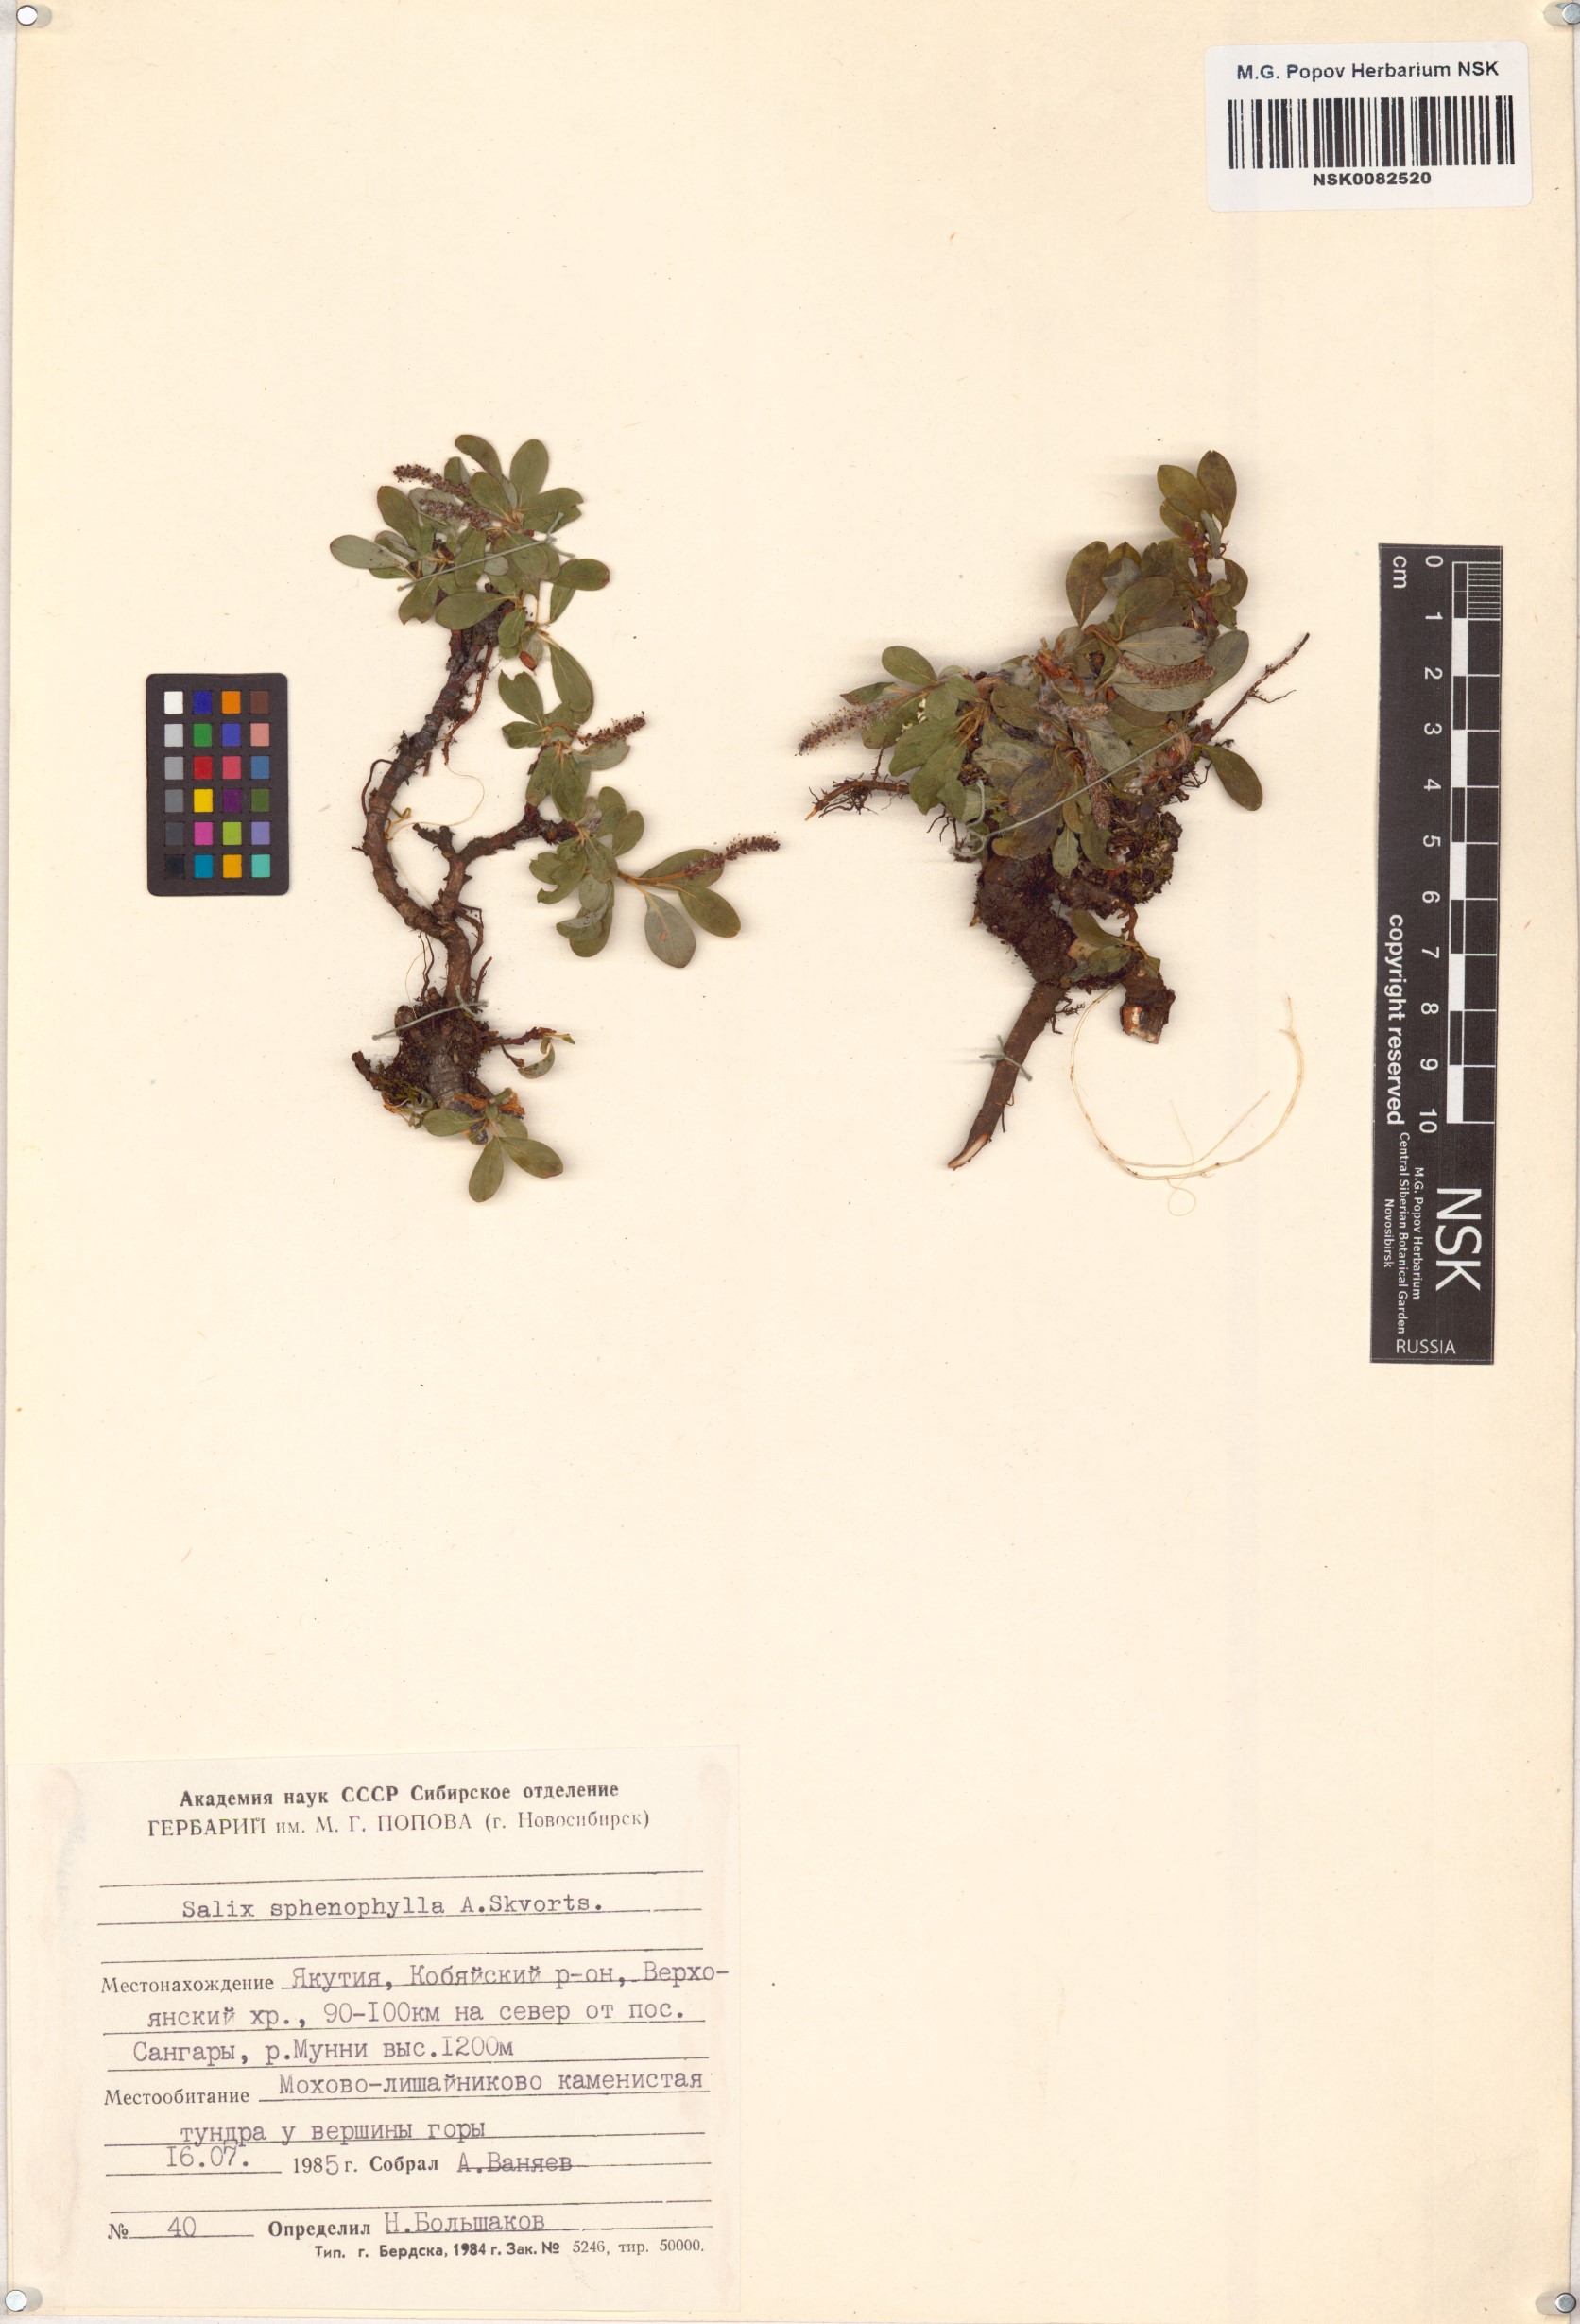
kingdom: Plantae
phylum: Tracheophyta
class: Magnoliopsida
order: Malpighiales
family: Salicaceae
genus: Salix
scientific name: Salix sphenophylla
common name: Wedge-leaved willow
